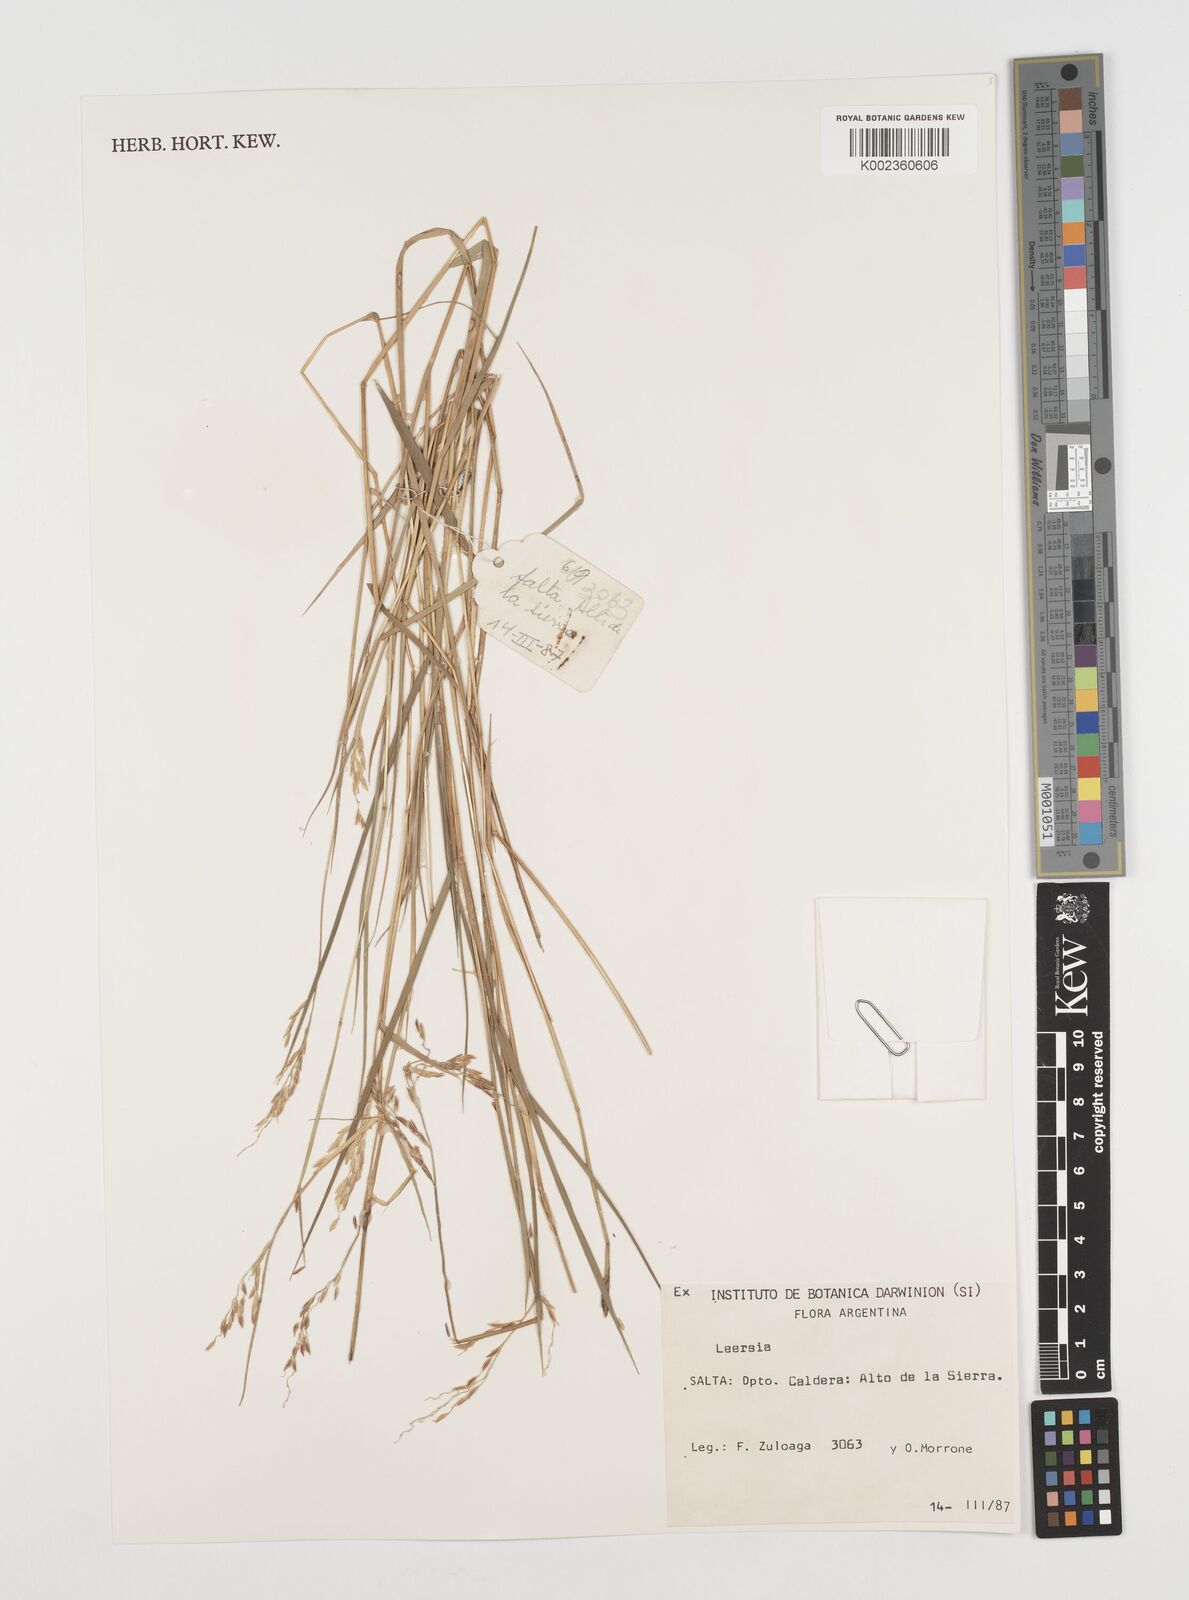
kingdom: Plantae
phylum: Tracheophyta
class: Liliopsida
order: Poales
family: Poaceae
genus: Leersia
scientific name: Leersia hexandra
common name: Southern cut grass
